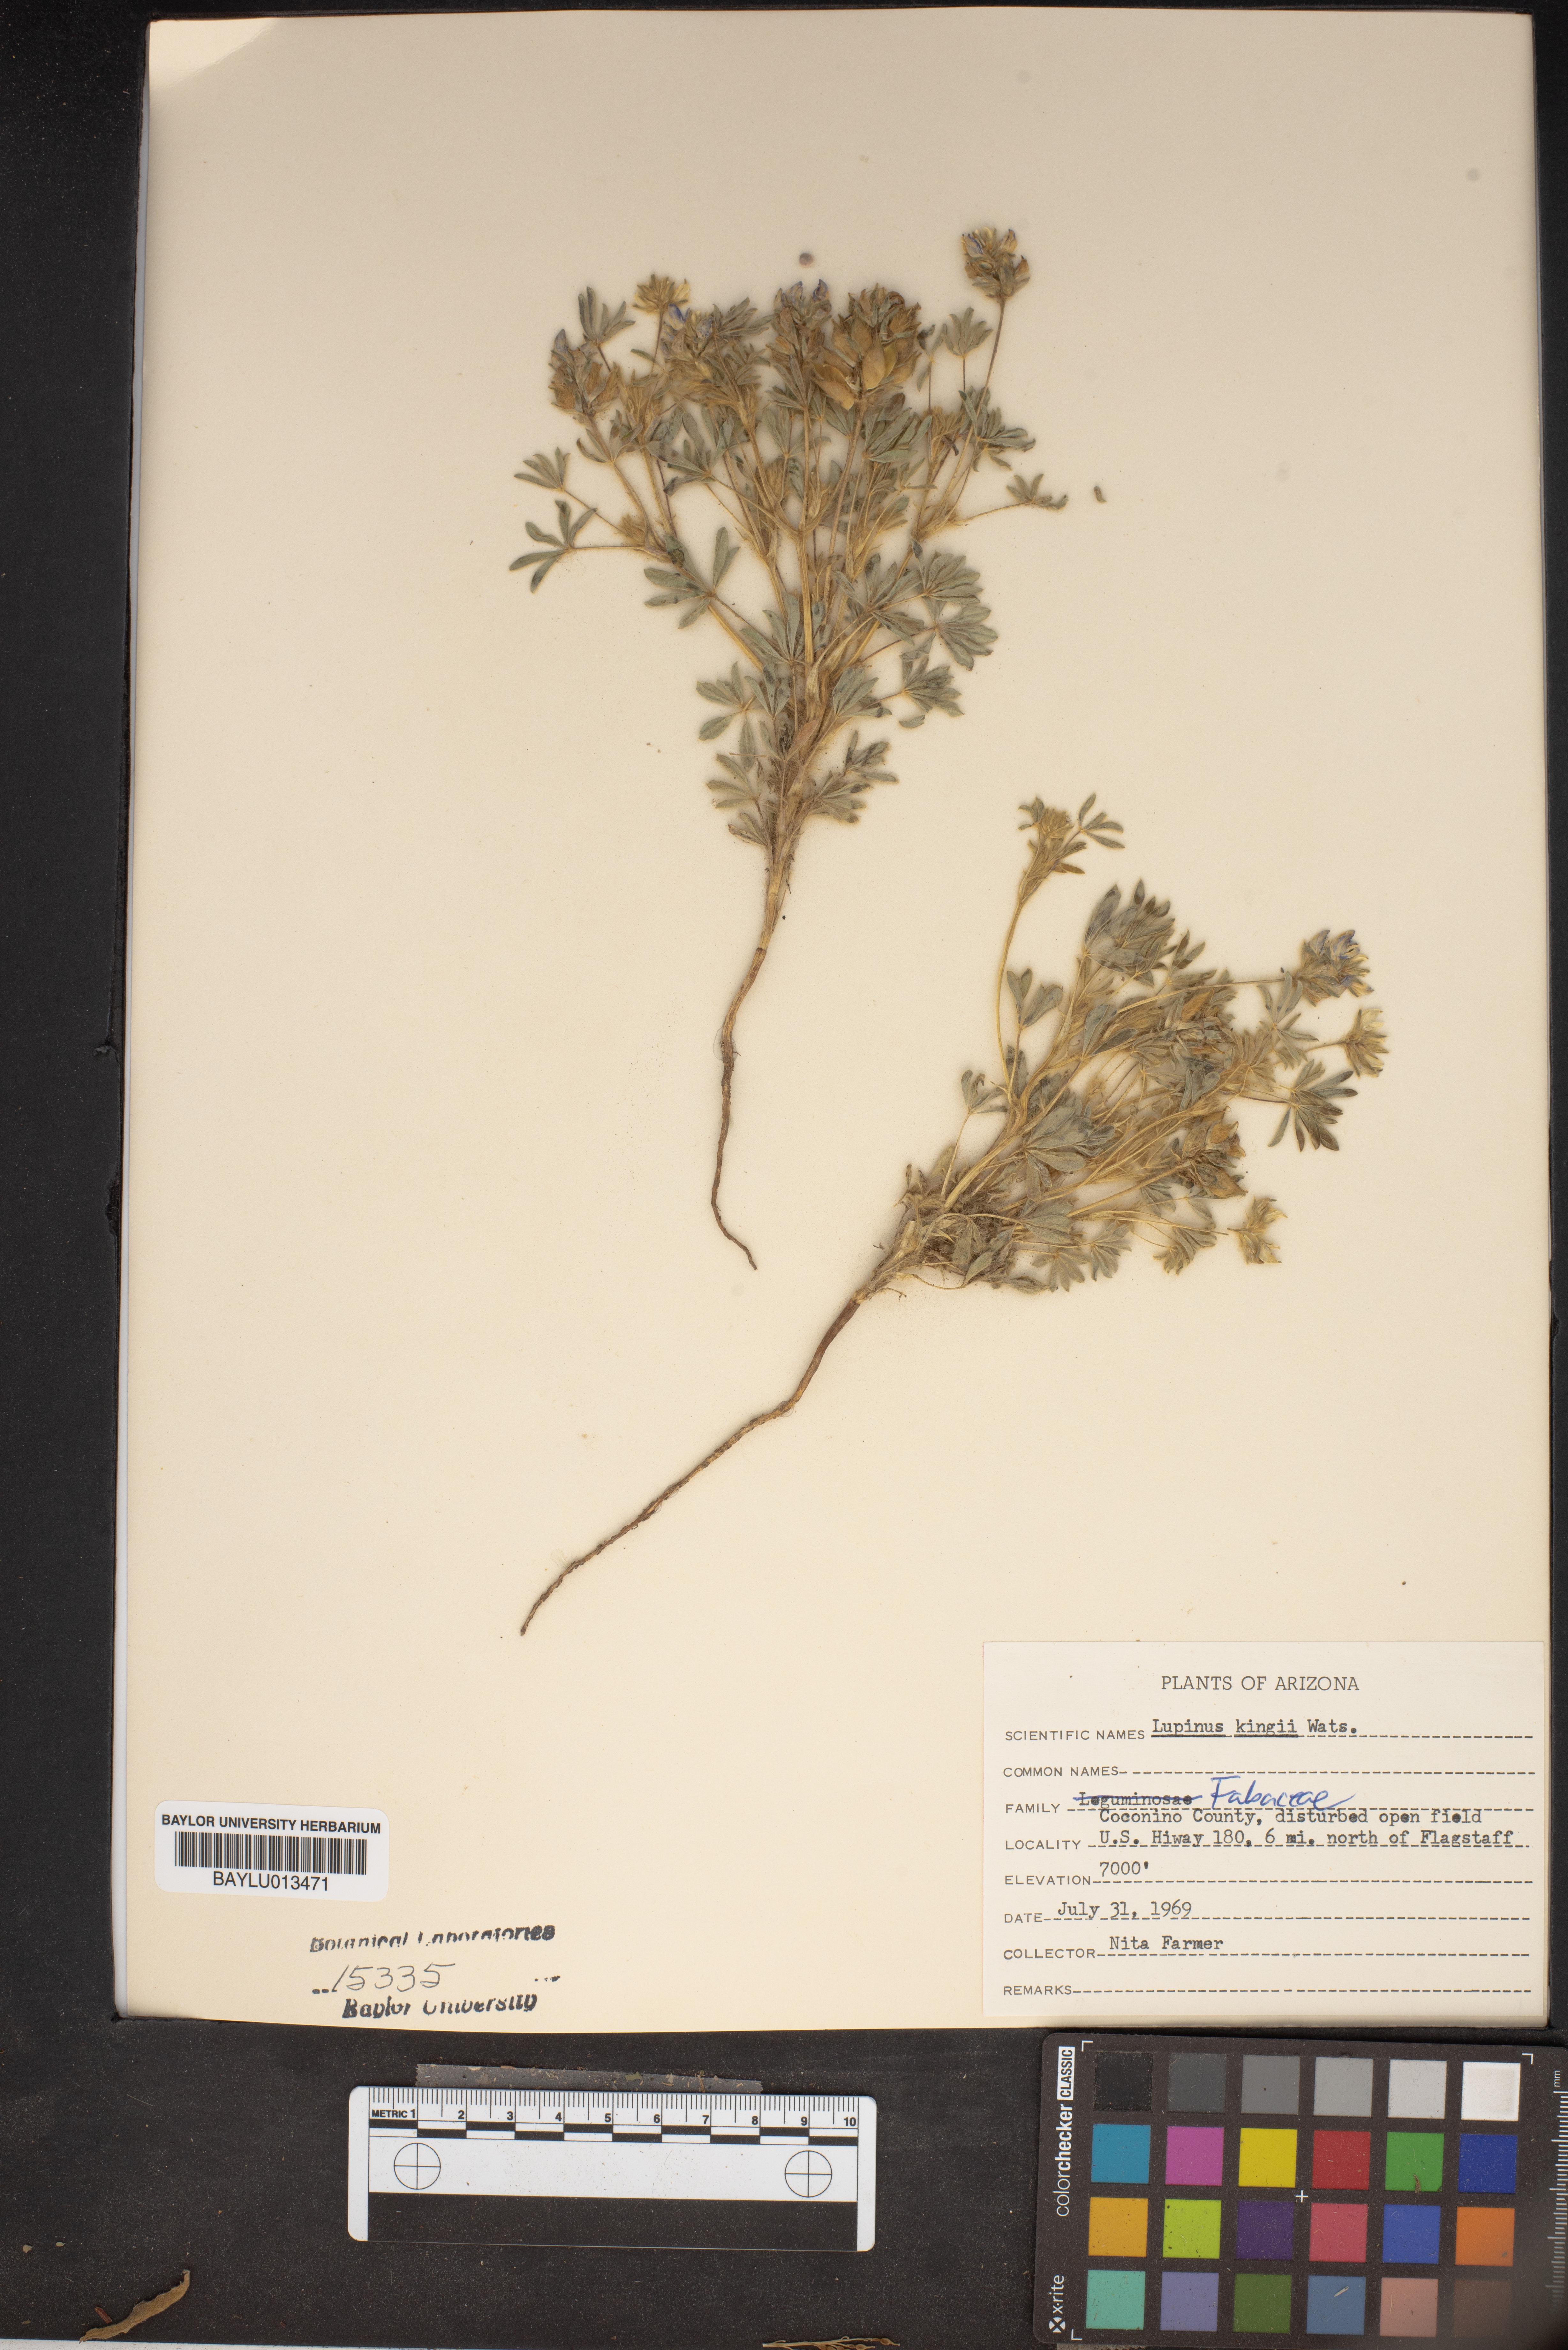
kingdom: Plantae
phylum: Tracheophyta
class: Magnoliopsida
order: Fabales
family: Fabaceae
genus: Lupinus
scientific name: Lupinus kingii
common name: King's lupine
